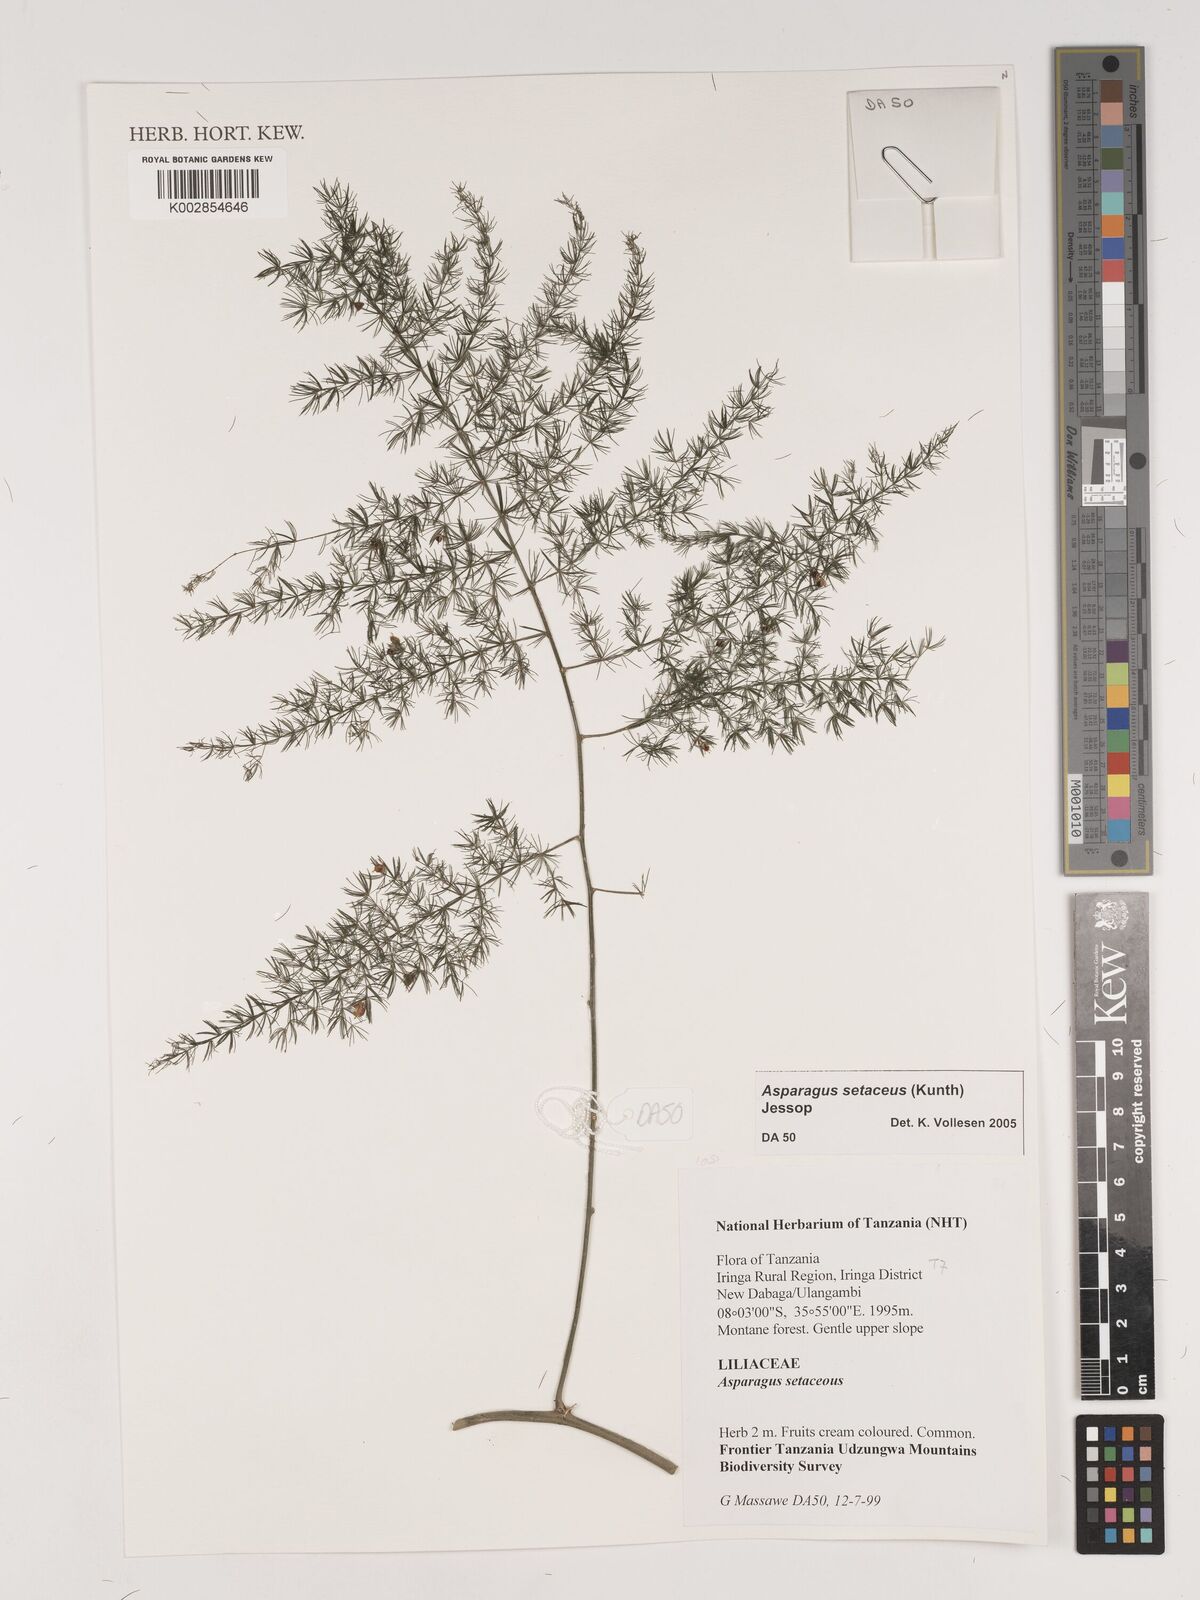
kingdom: Plantae
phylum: Tracheophyta
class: Liliopsida
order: Asparagales
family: Asparagaceae
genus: Asparagus
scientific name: Asparagus setaceus
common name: Common asparagus fern
